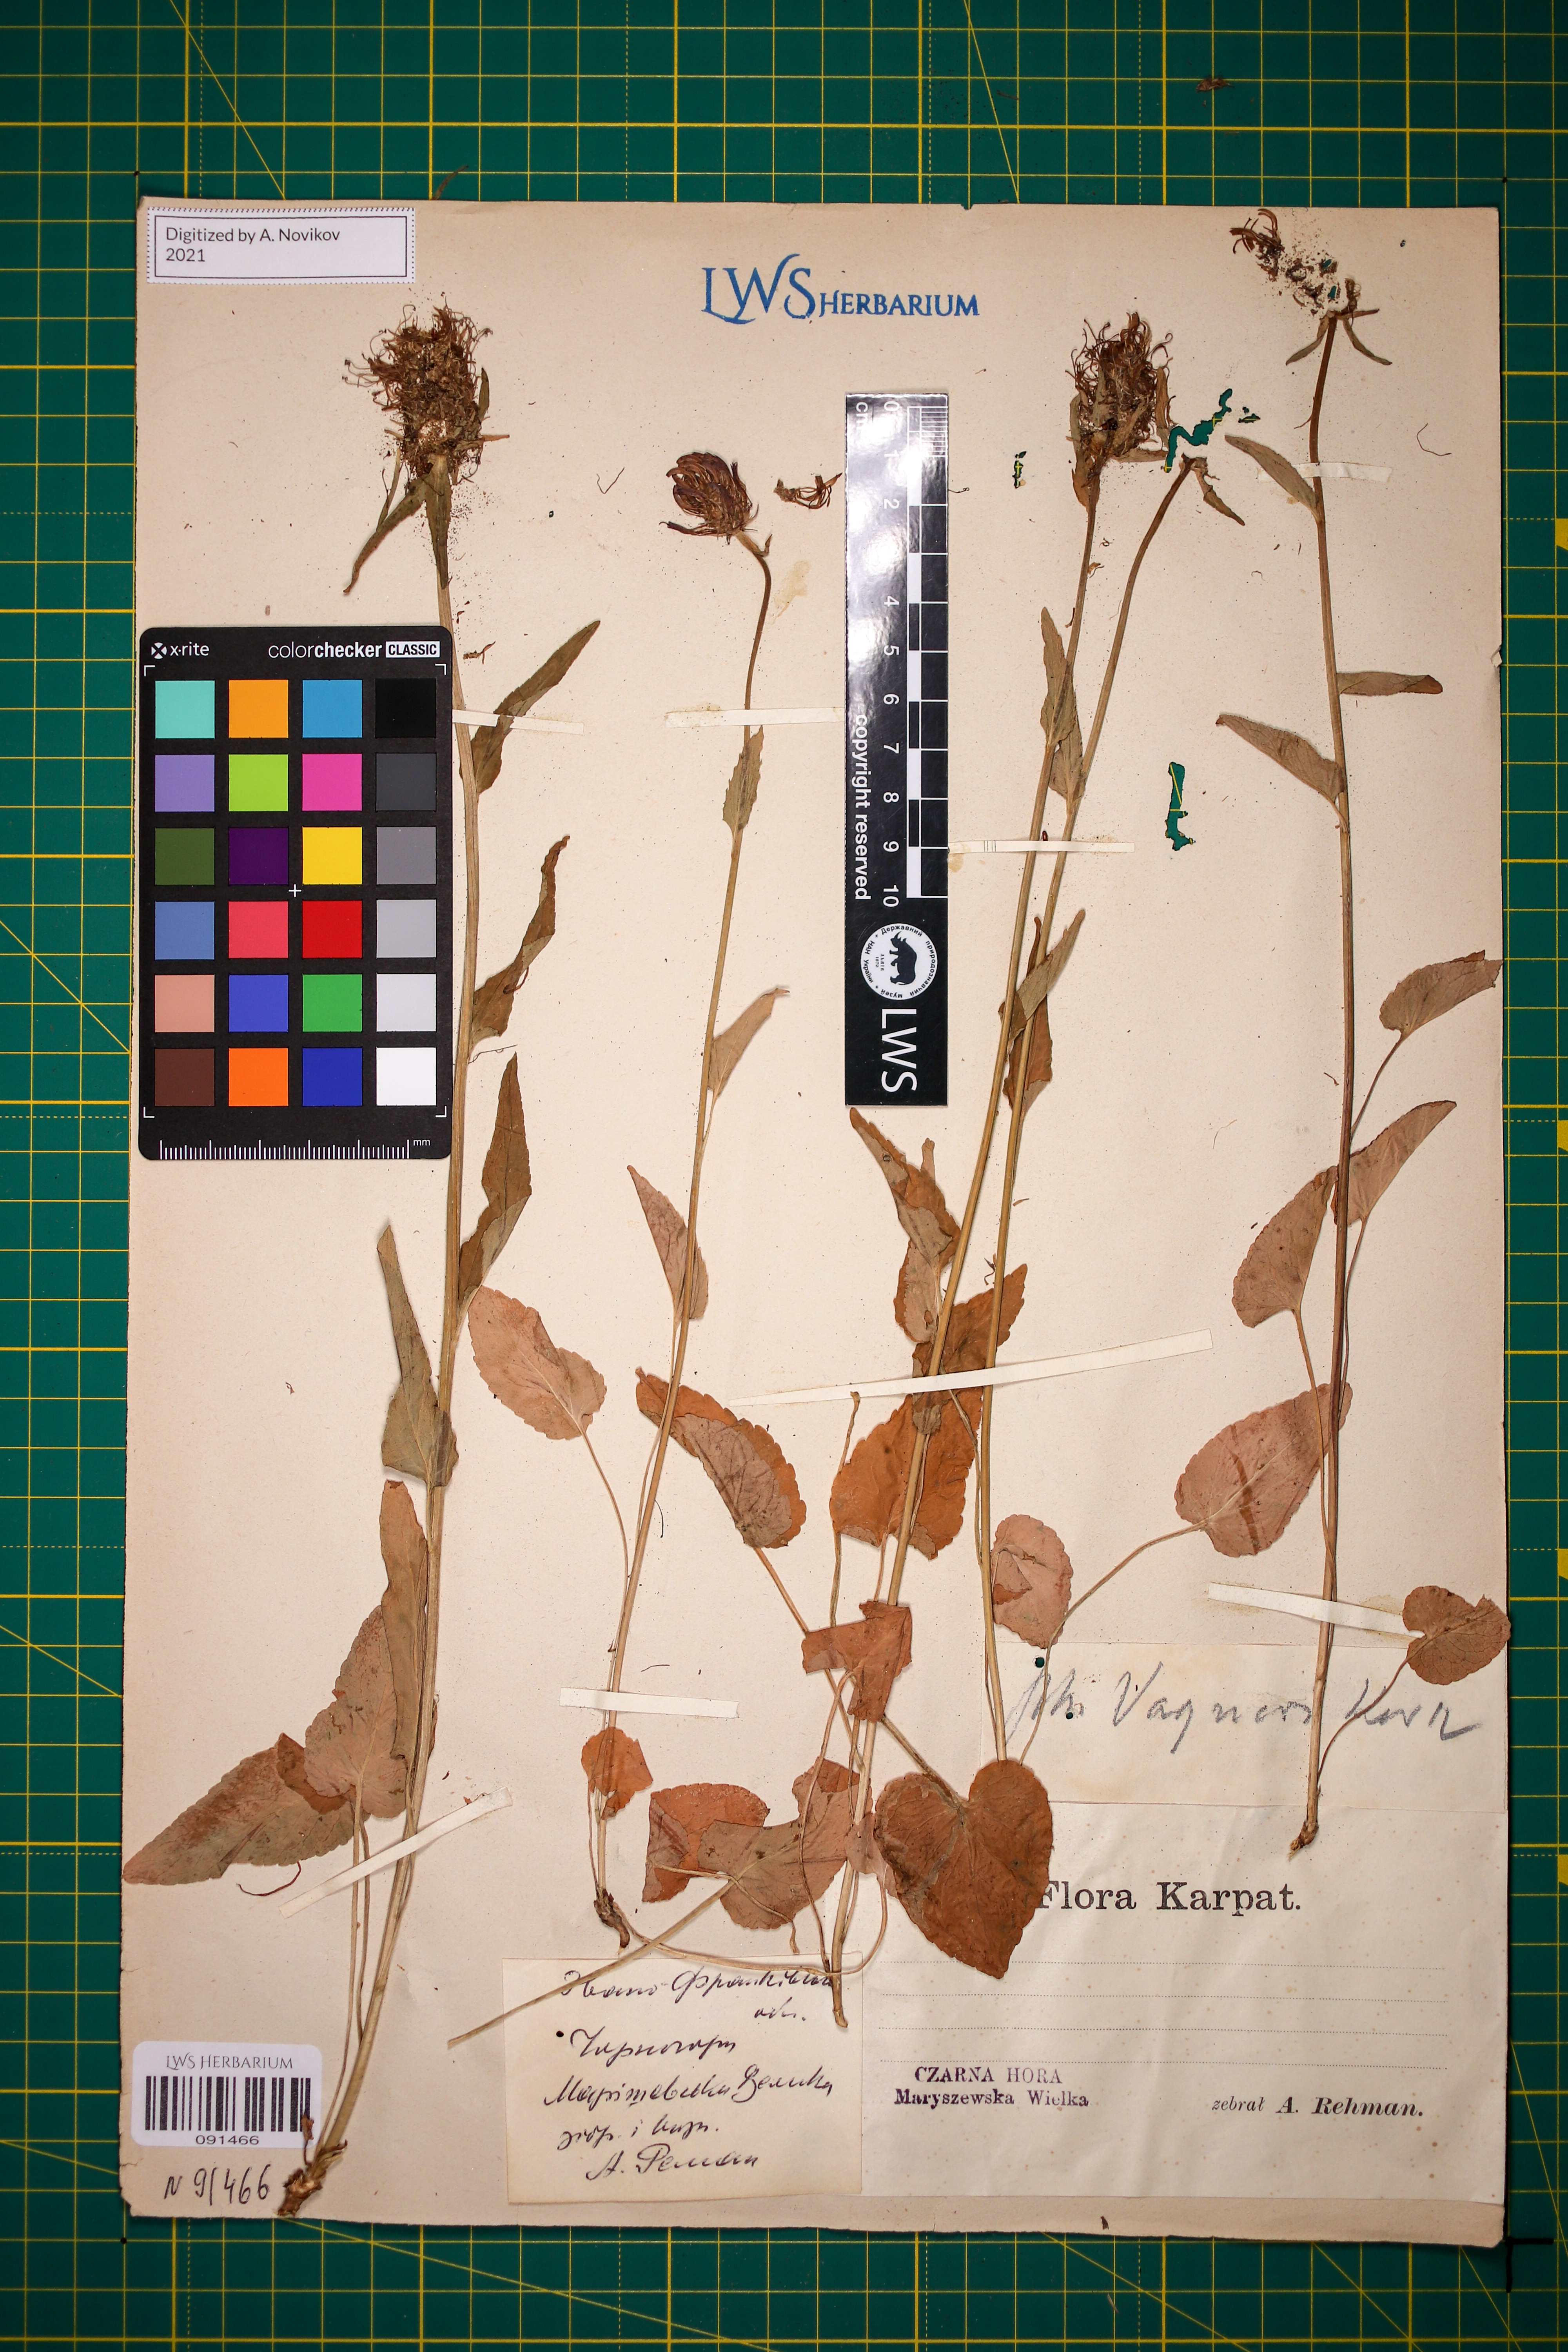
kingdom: Plantae
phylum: Tracheophyta
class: Magnoliopsida
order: Asterales
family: Campanulaceae
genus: Phyteuma
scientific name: Phyteuma vagneri
